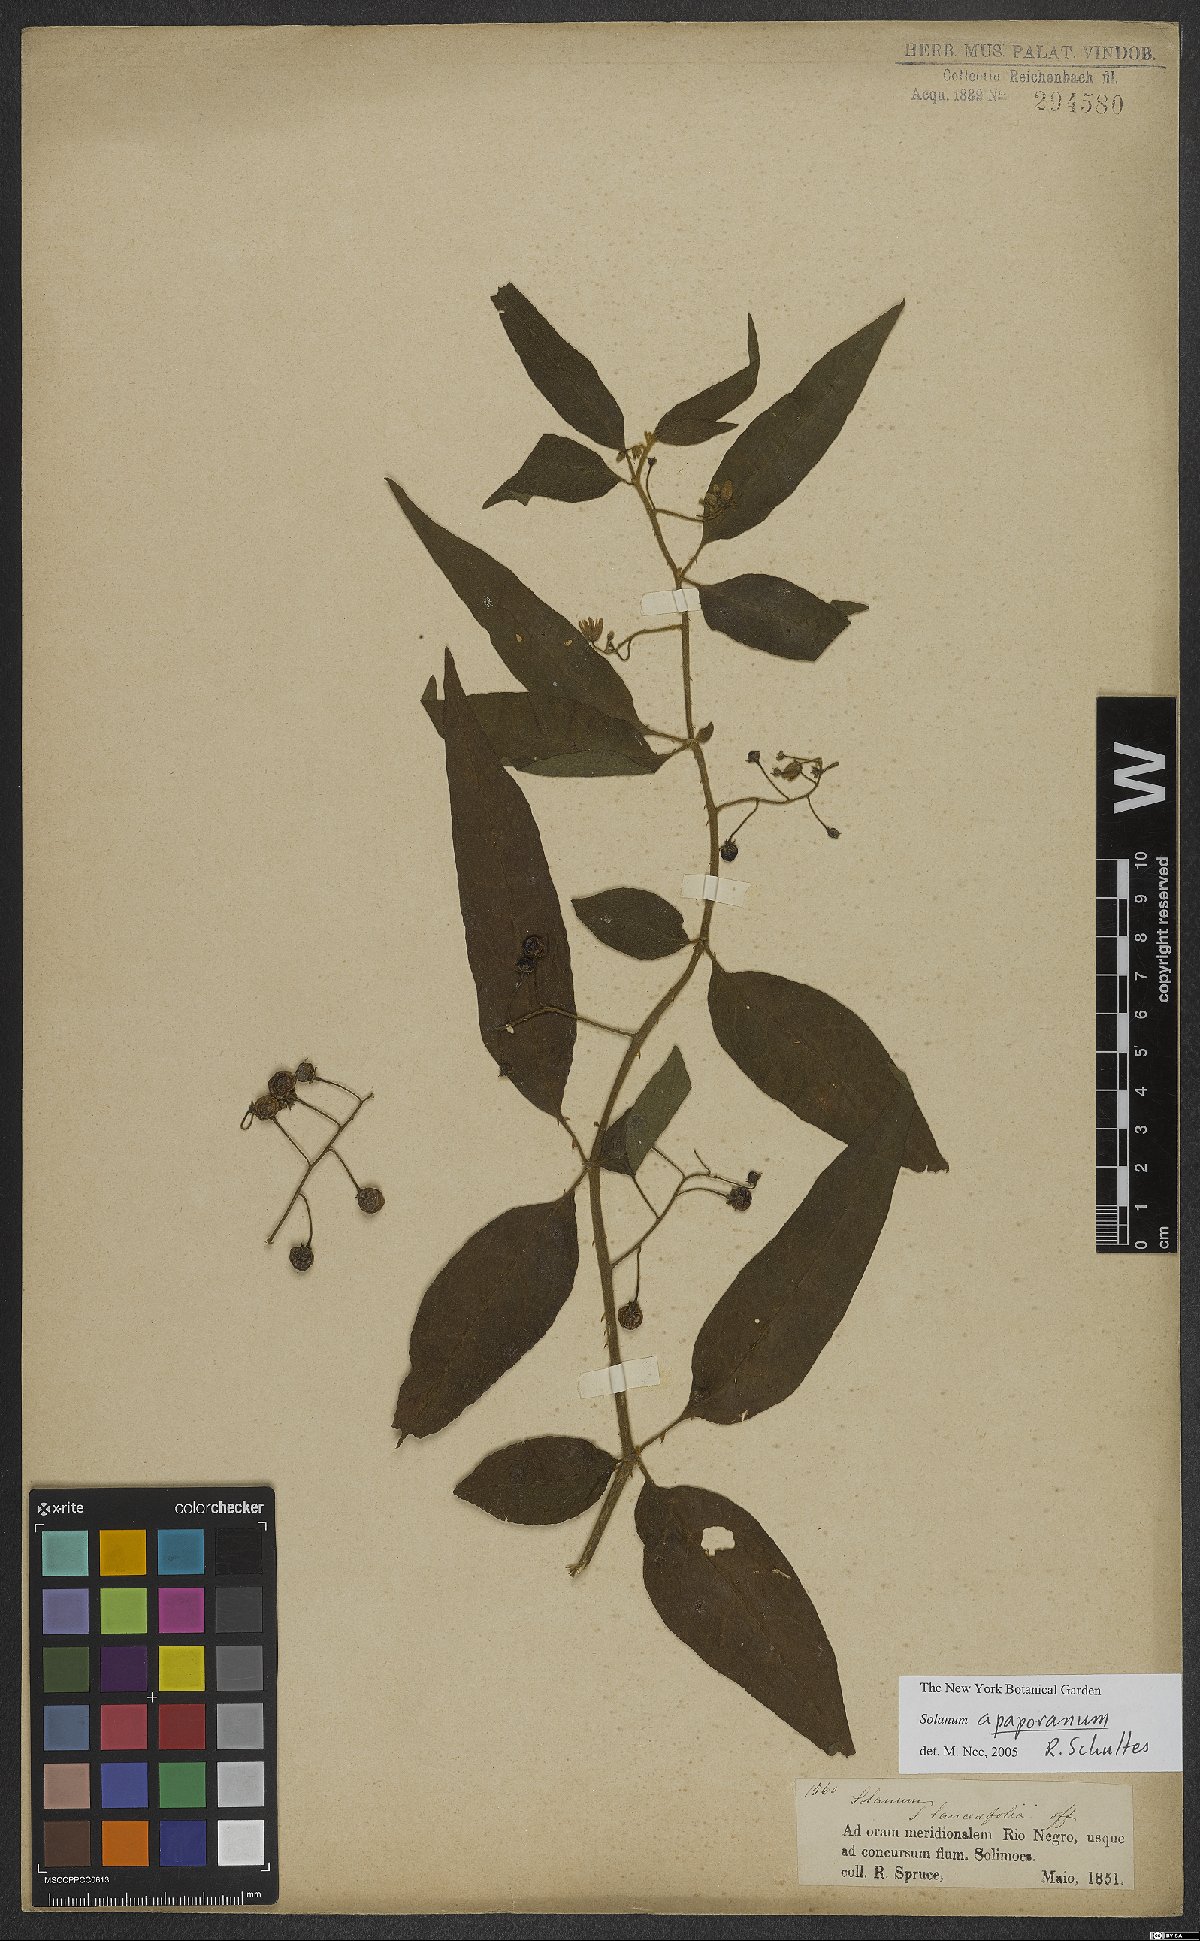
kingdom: Plantae
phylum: Tracheophyta
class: Magnoliopsida
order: Solanales
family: Solanaceae
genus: Solanum
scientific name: Solanum apaporanum
